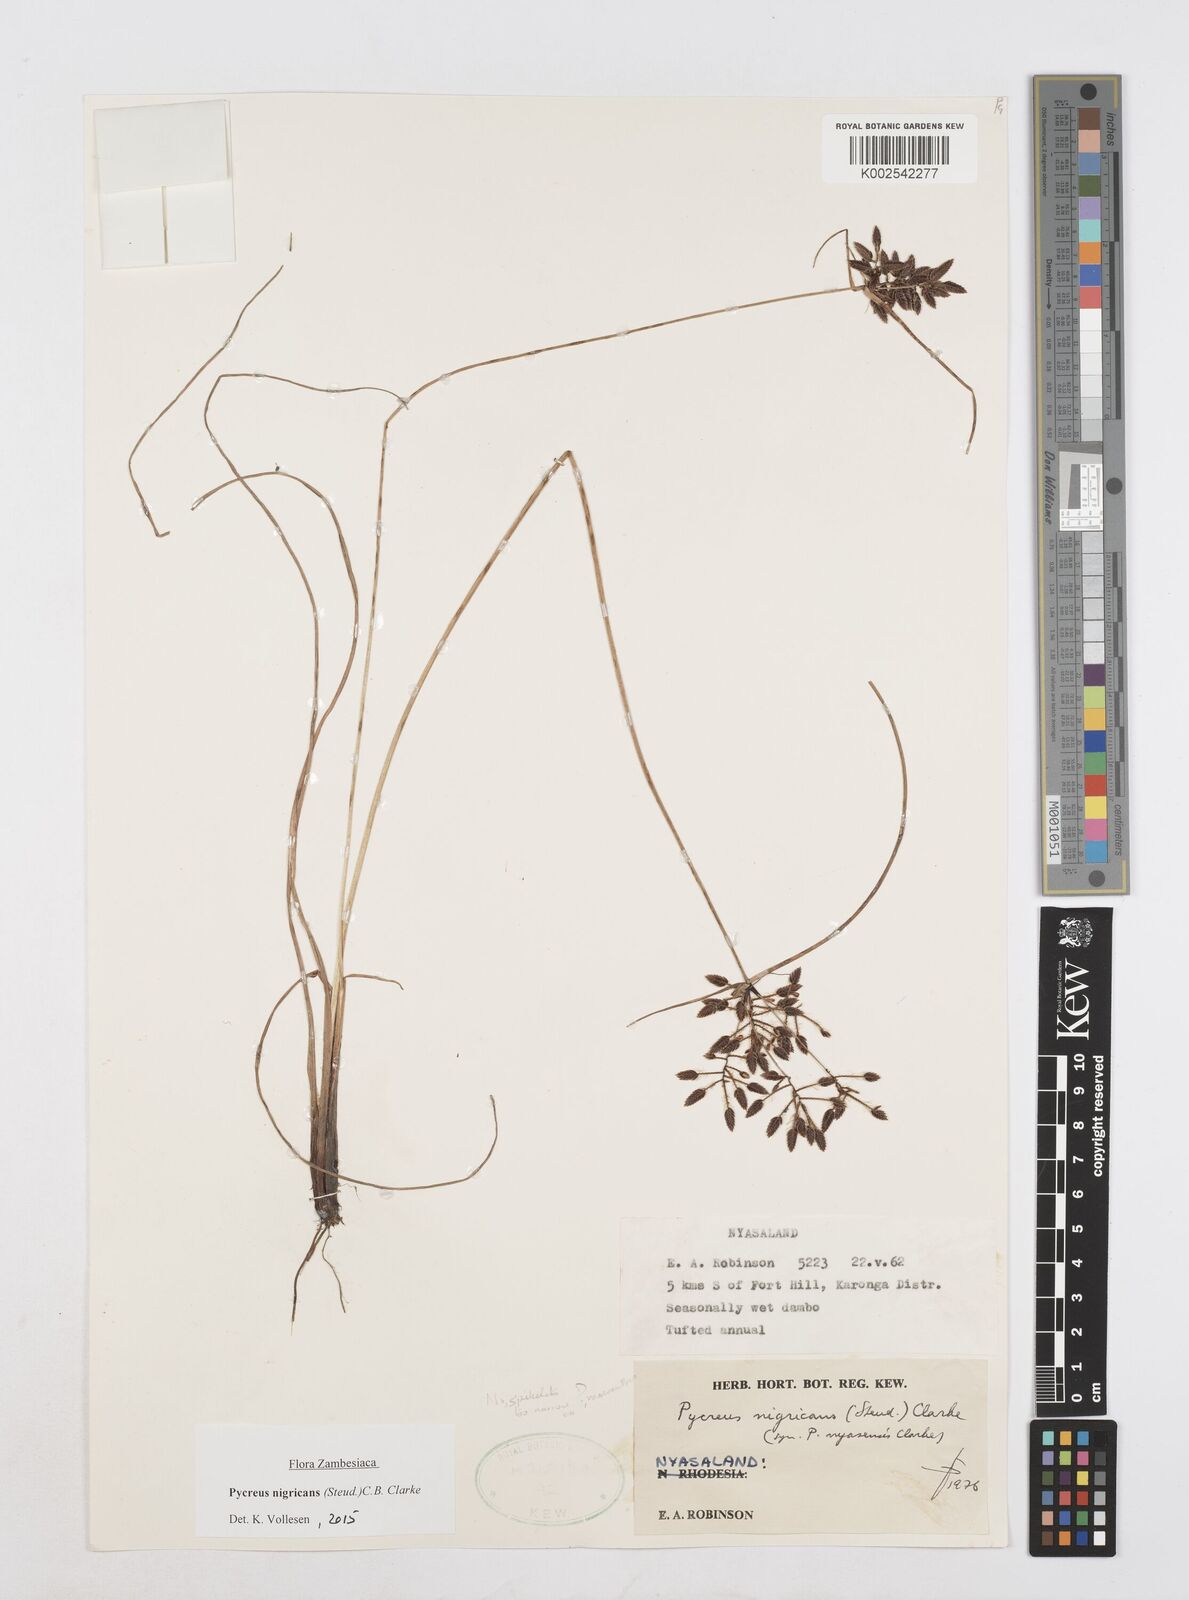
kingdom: Plantae
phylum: Tracheophyta
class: Liliopsida
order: Poales
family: Cyperaceae
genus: Cyperus
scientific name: Cyperus nigricans
